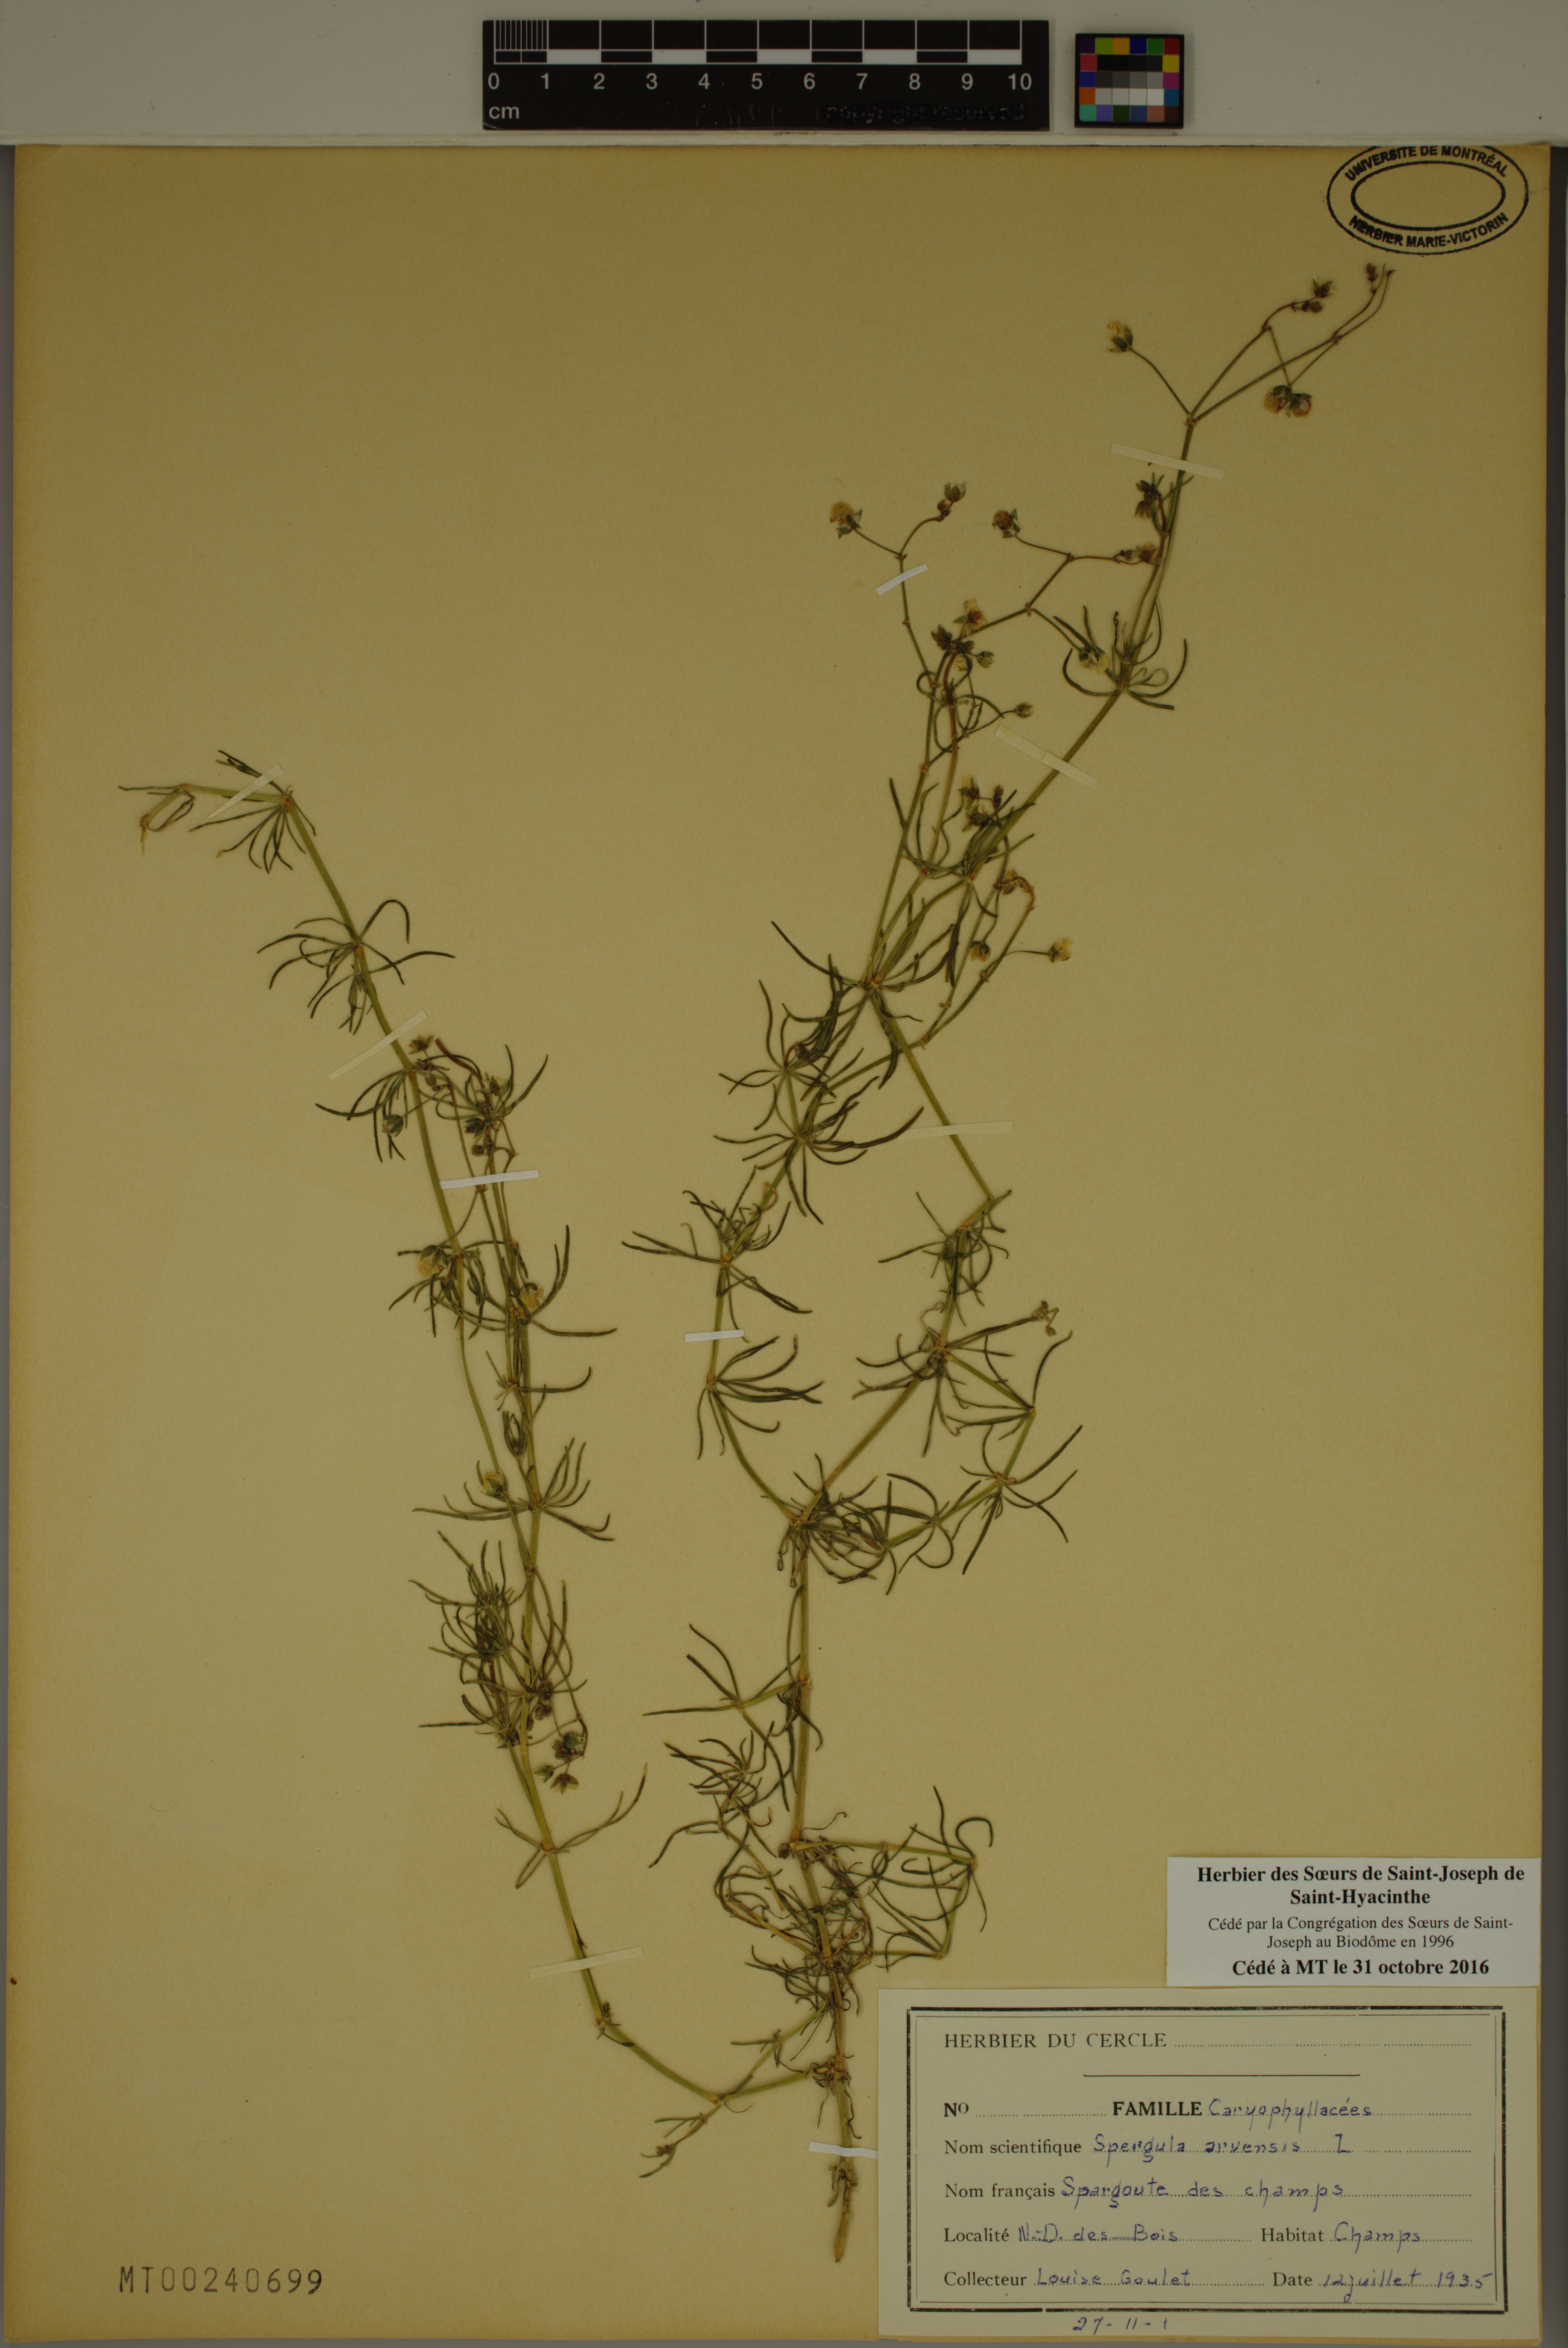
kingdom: Plantae
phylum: Tracheophyta
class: Magnoliopsida
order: Caryophyllales
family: Caryophyllaceae
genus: Spergula
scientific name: Spergula arvensis
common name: Corn spurrey
